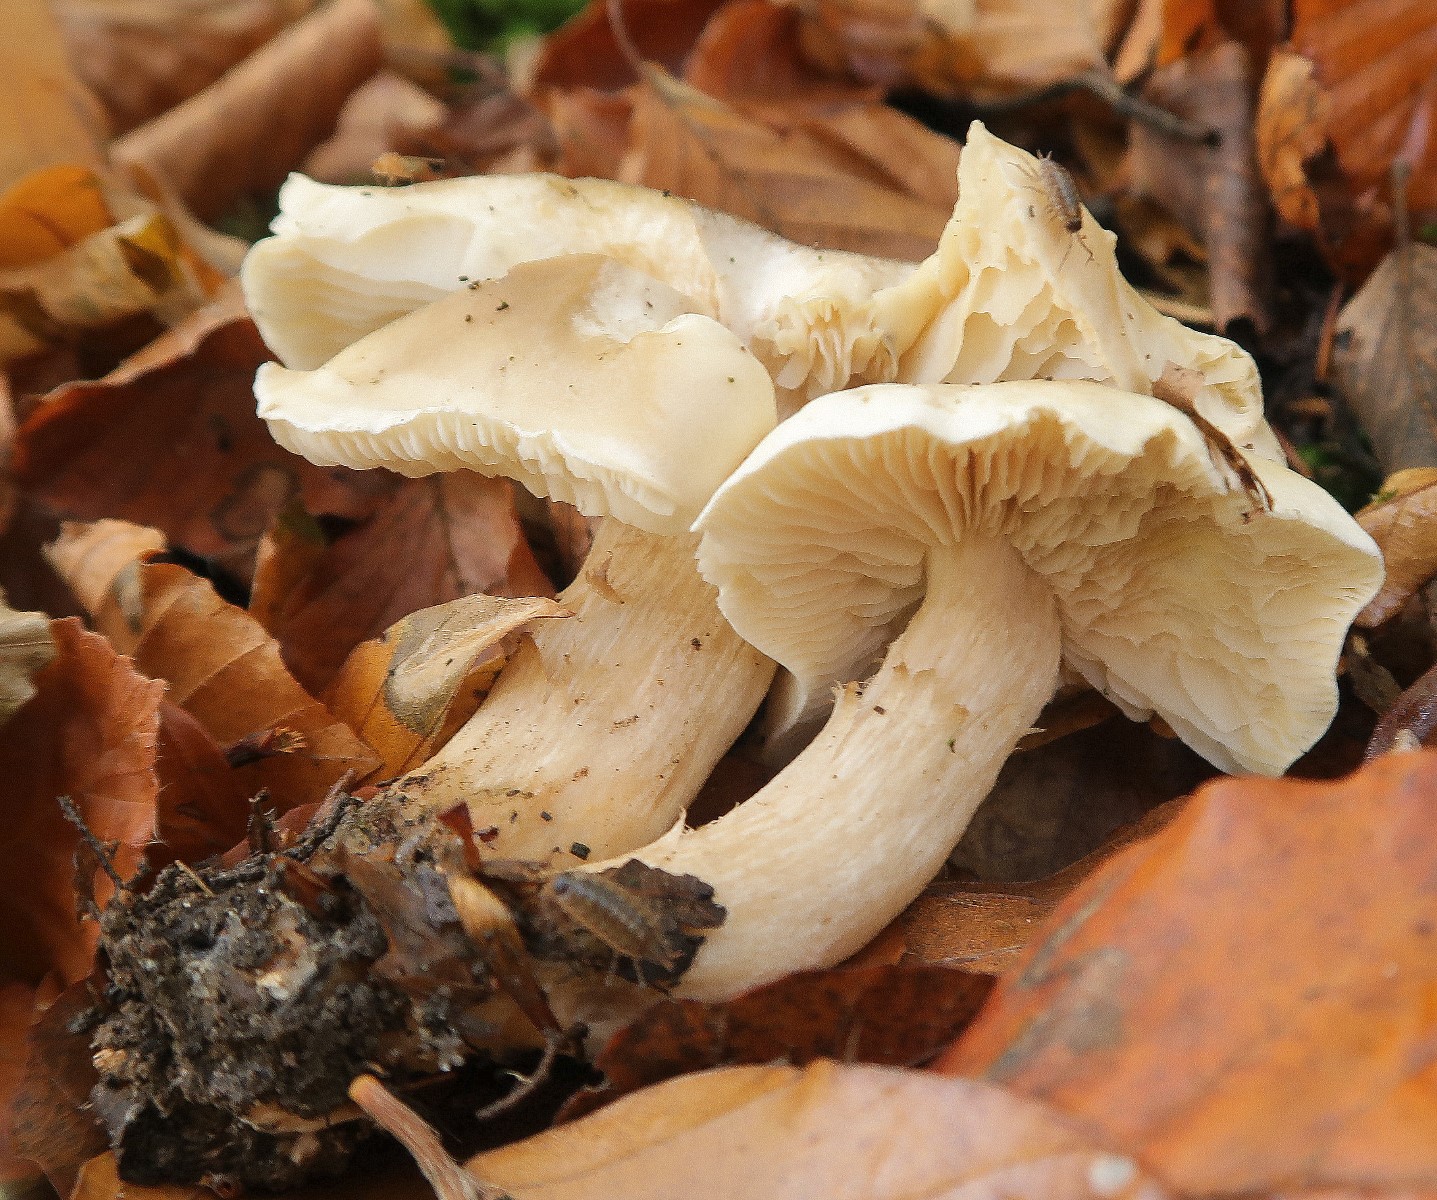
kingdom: Fungi
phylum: Basidiomycota
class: Agaricomycetes
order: Agaricales
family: Tricholomataceae
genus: Tricholoma
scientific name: Tricholoma
